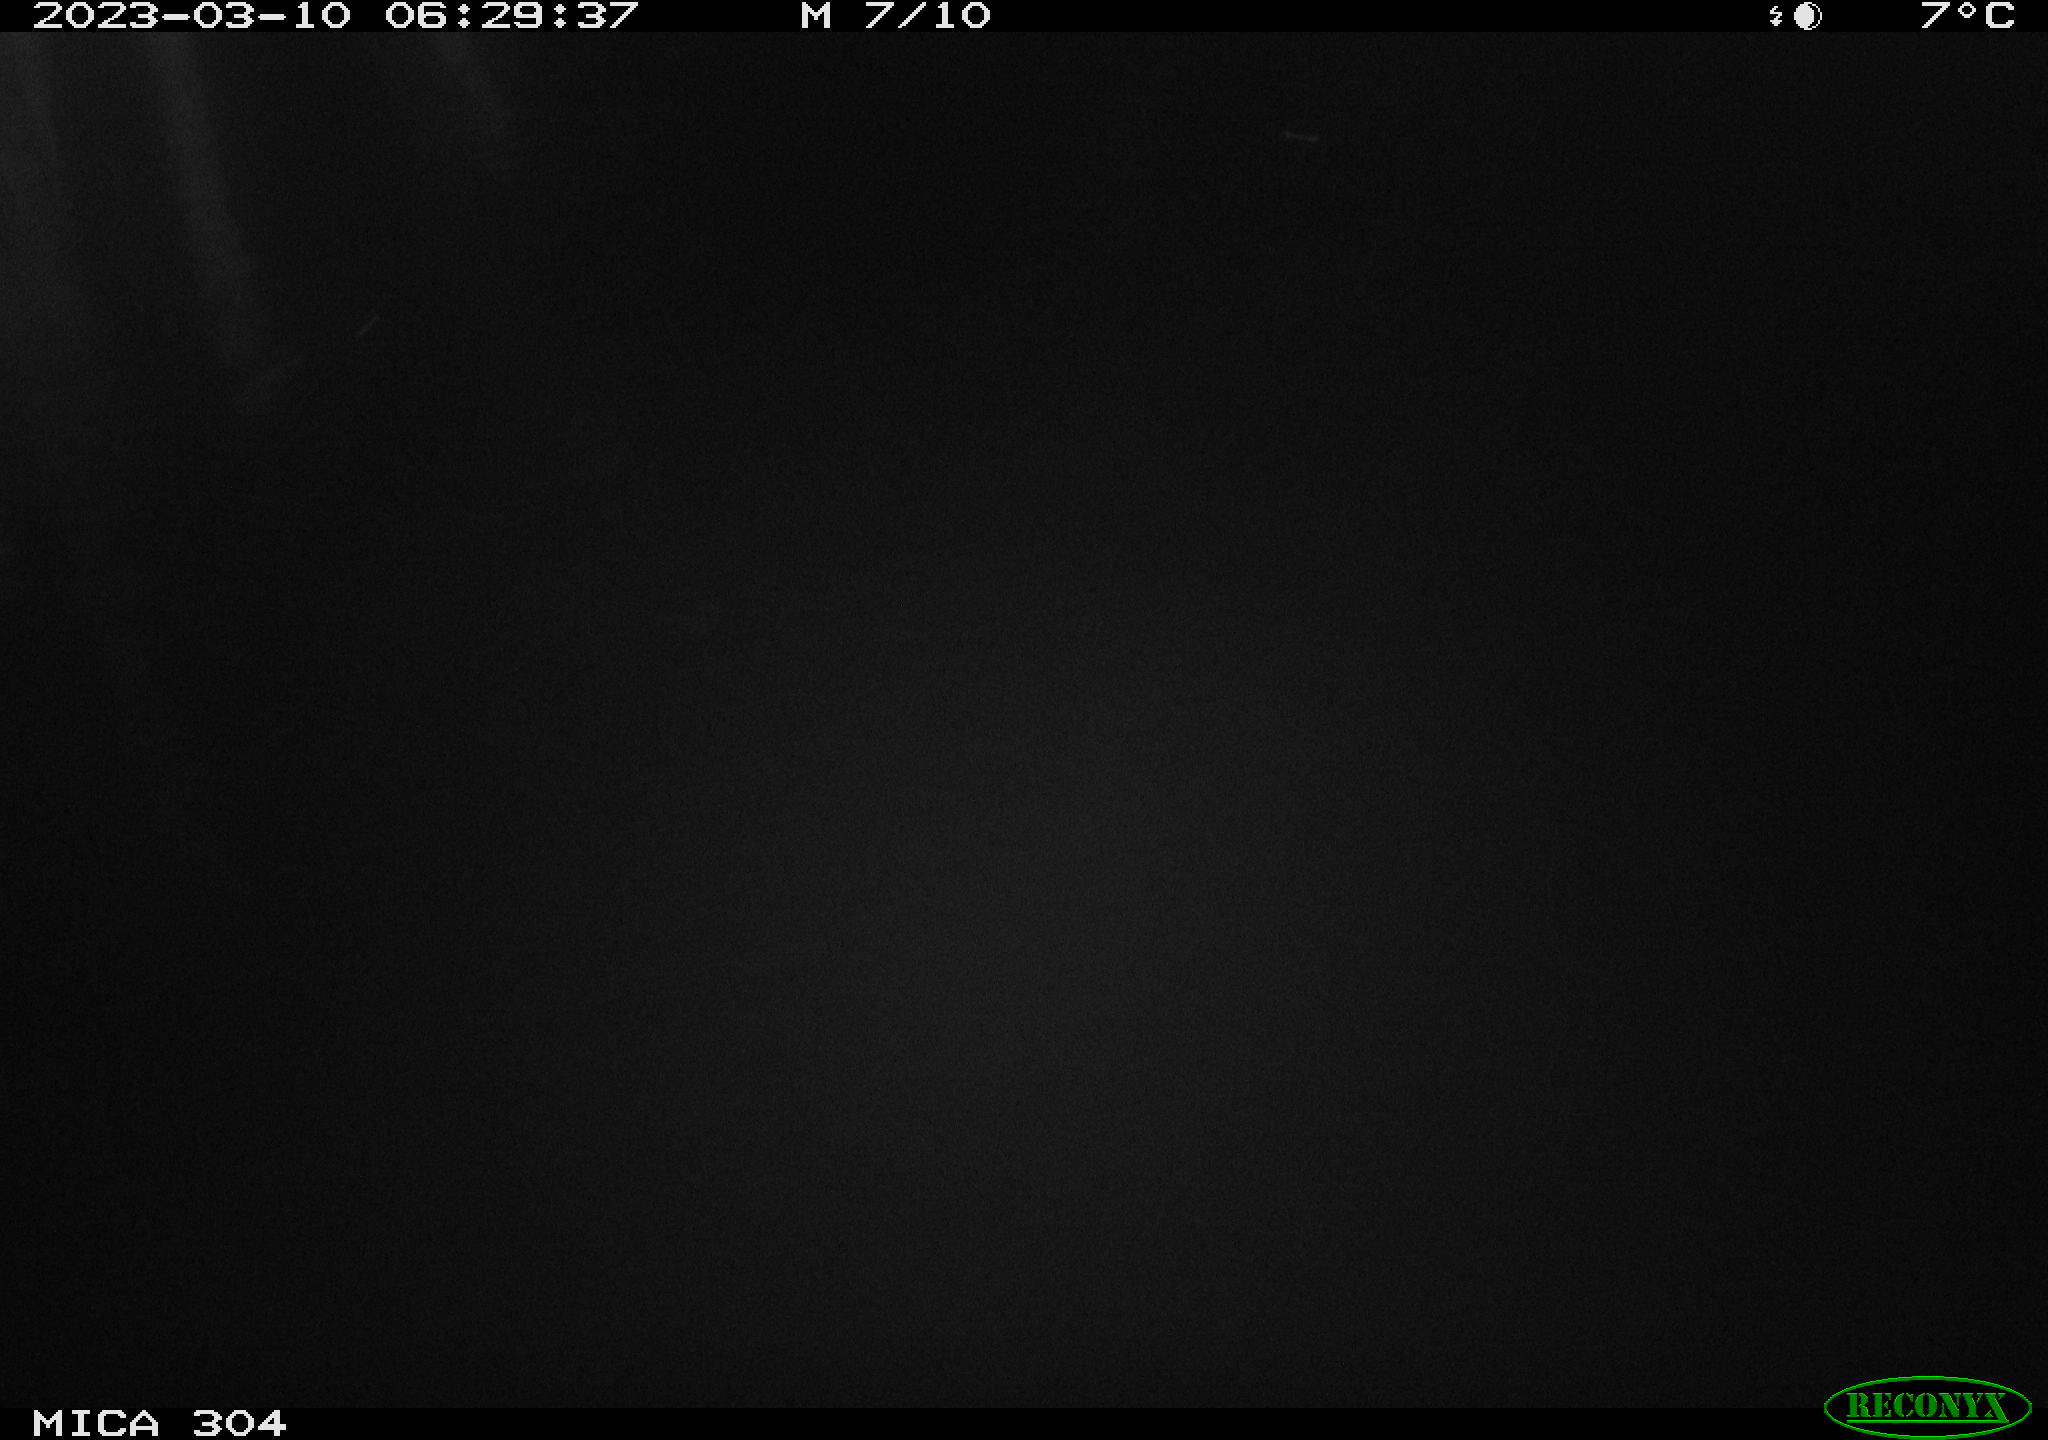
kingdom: Animalia
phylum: Chordata
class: Aves
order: Gruiformes
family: Rallidae
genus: Fulica
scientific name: Fulica atra
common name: Eurasian coot
